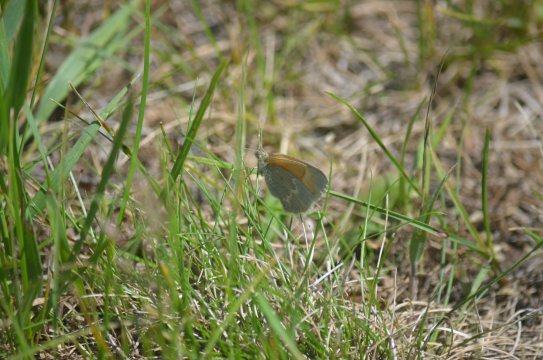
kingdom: Animalia
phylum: Arthropoda
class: Insecta
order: Lepidoptera
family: Nymphalidae
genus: Coenonympha
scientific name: Coenonympha tullia
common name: Large Heath
